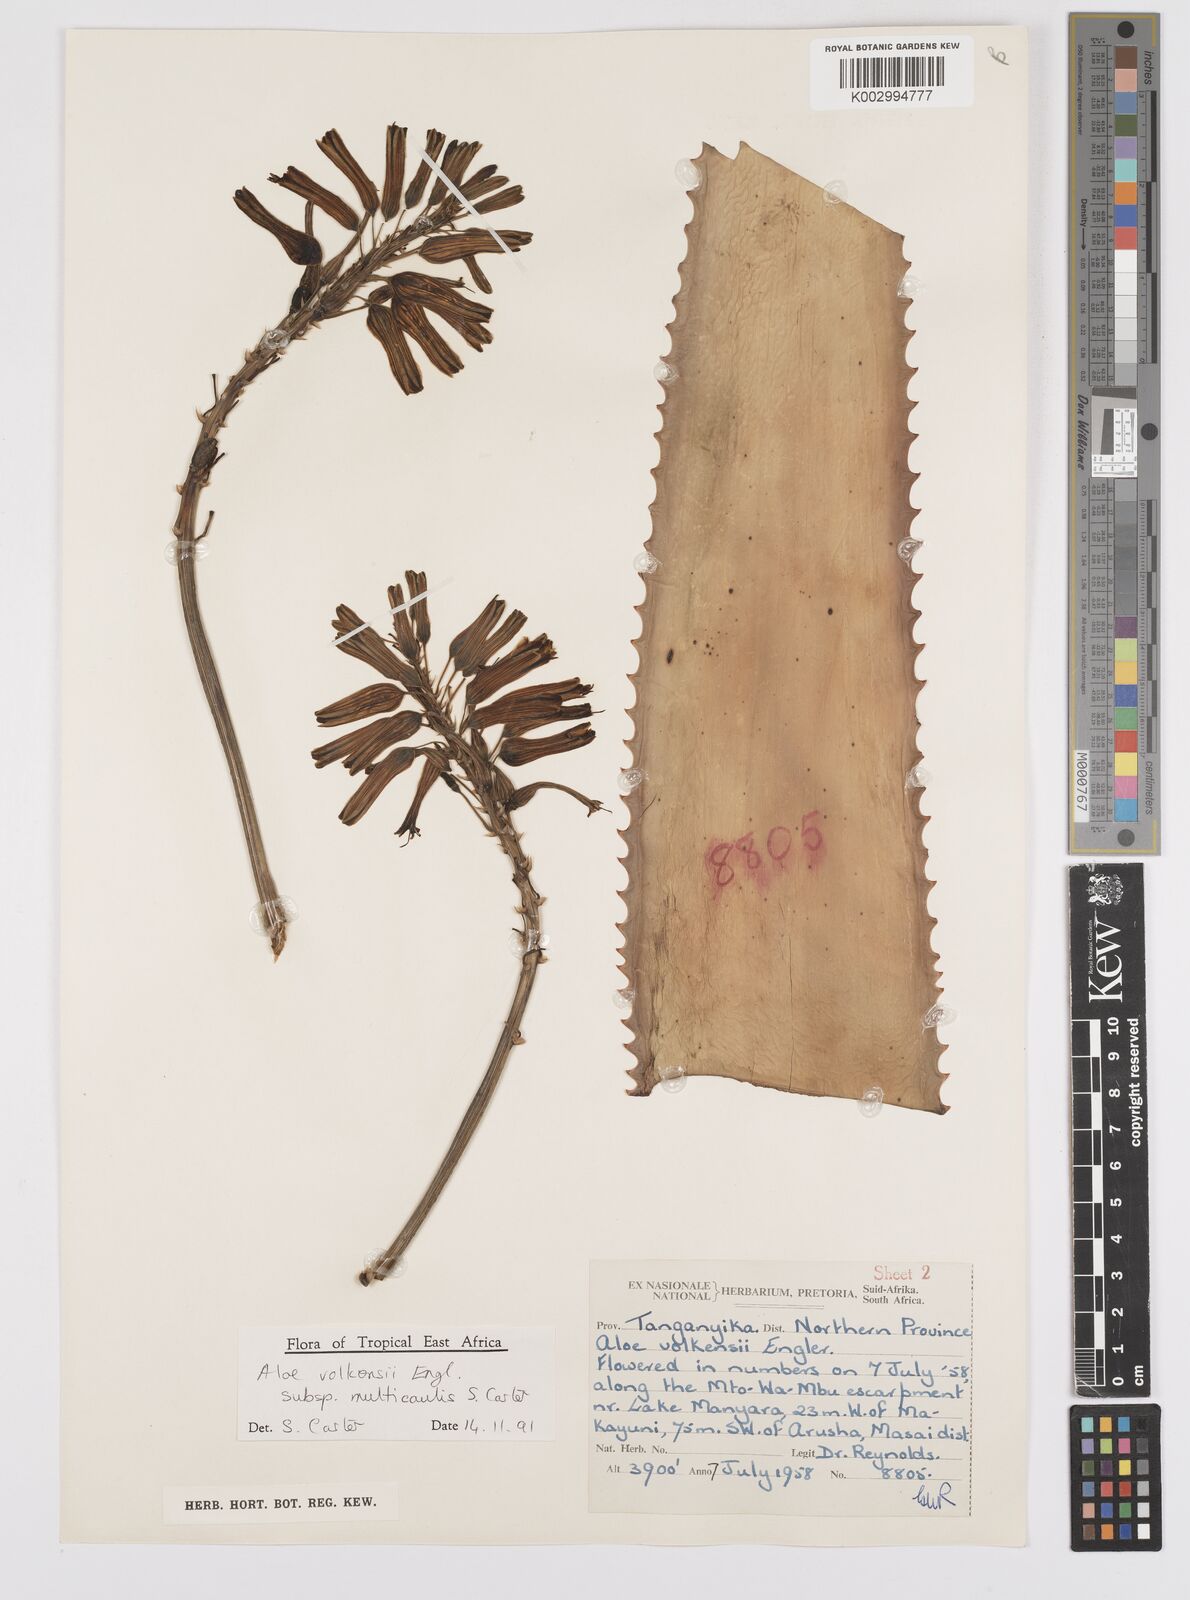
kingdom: Plantae
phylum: Tracheophyta
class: Liliopsida
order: Asparagales
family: Asphodelaceae
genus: Aloe
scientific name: Aloe volkensii
